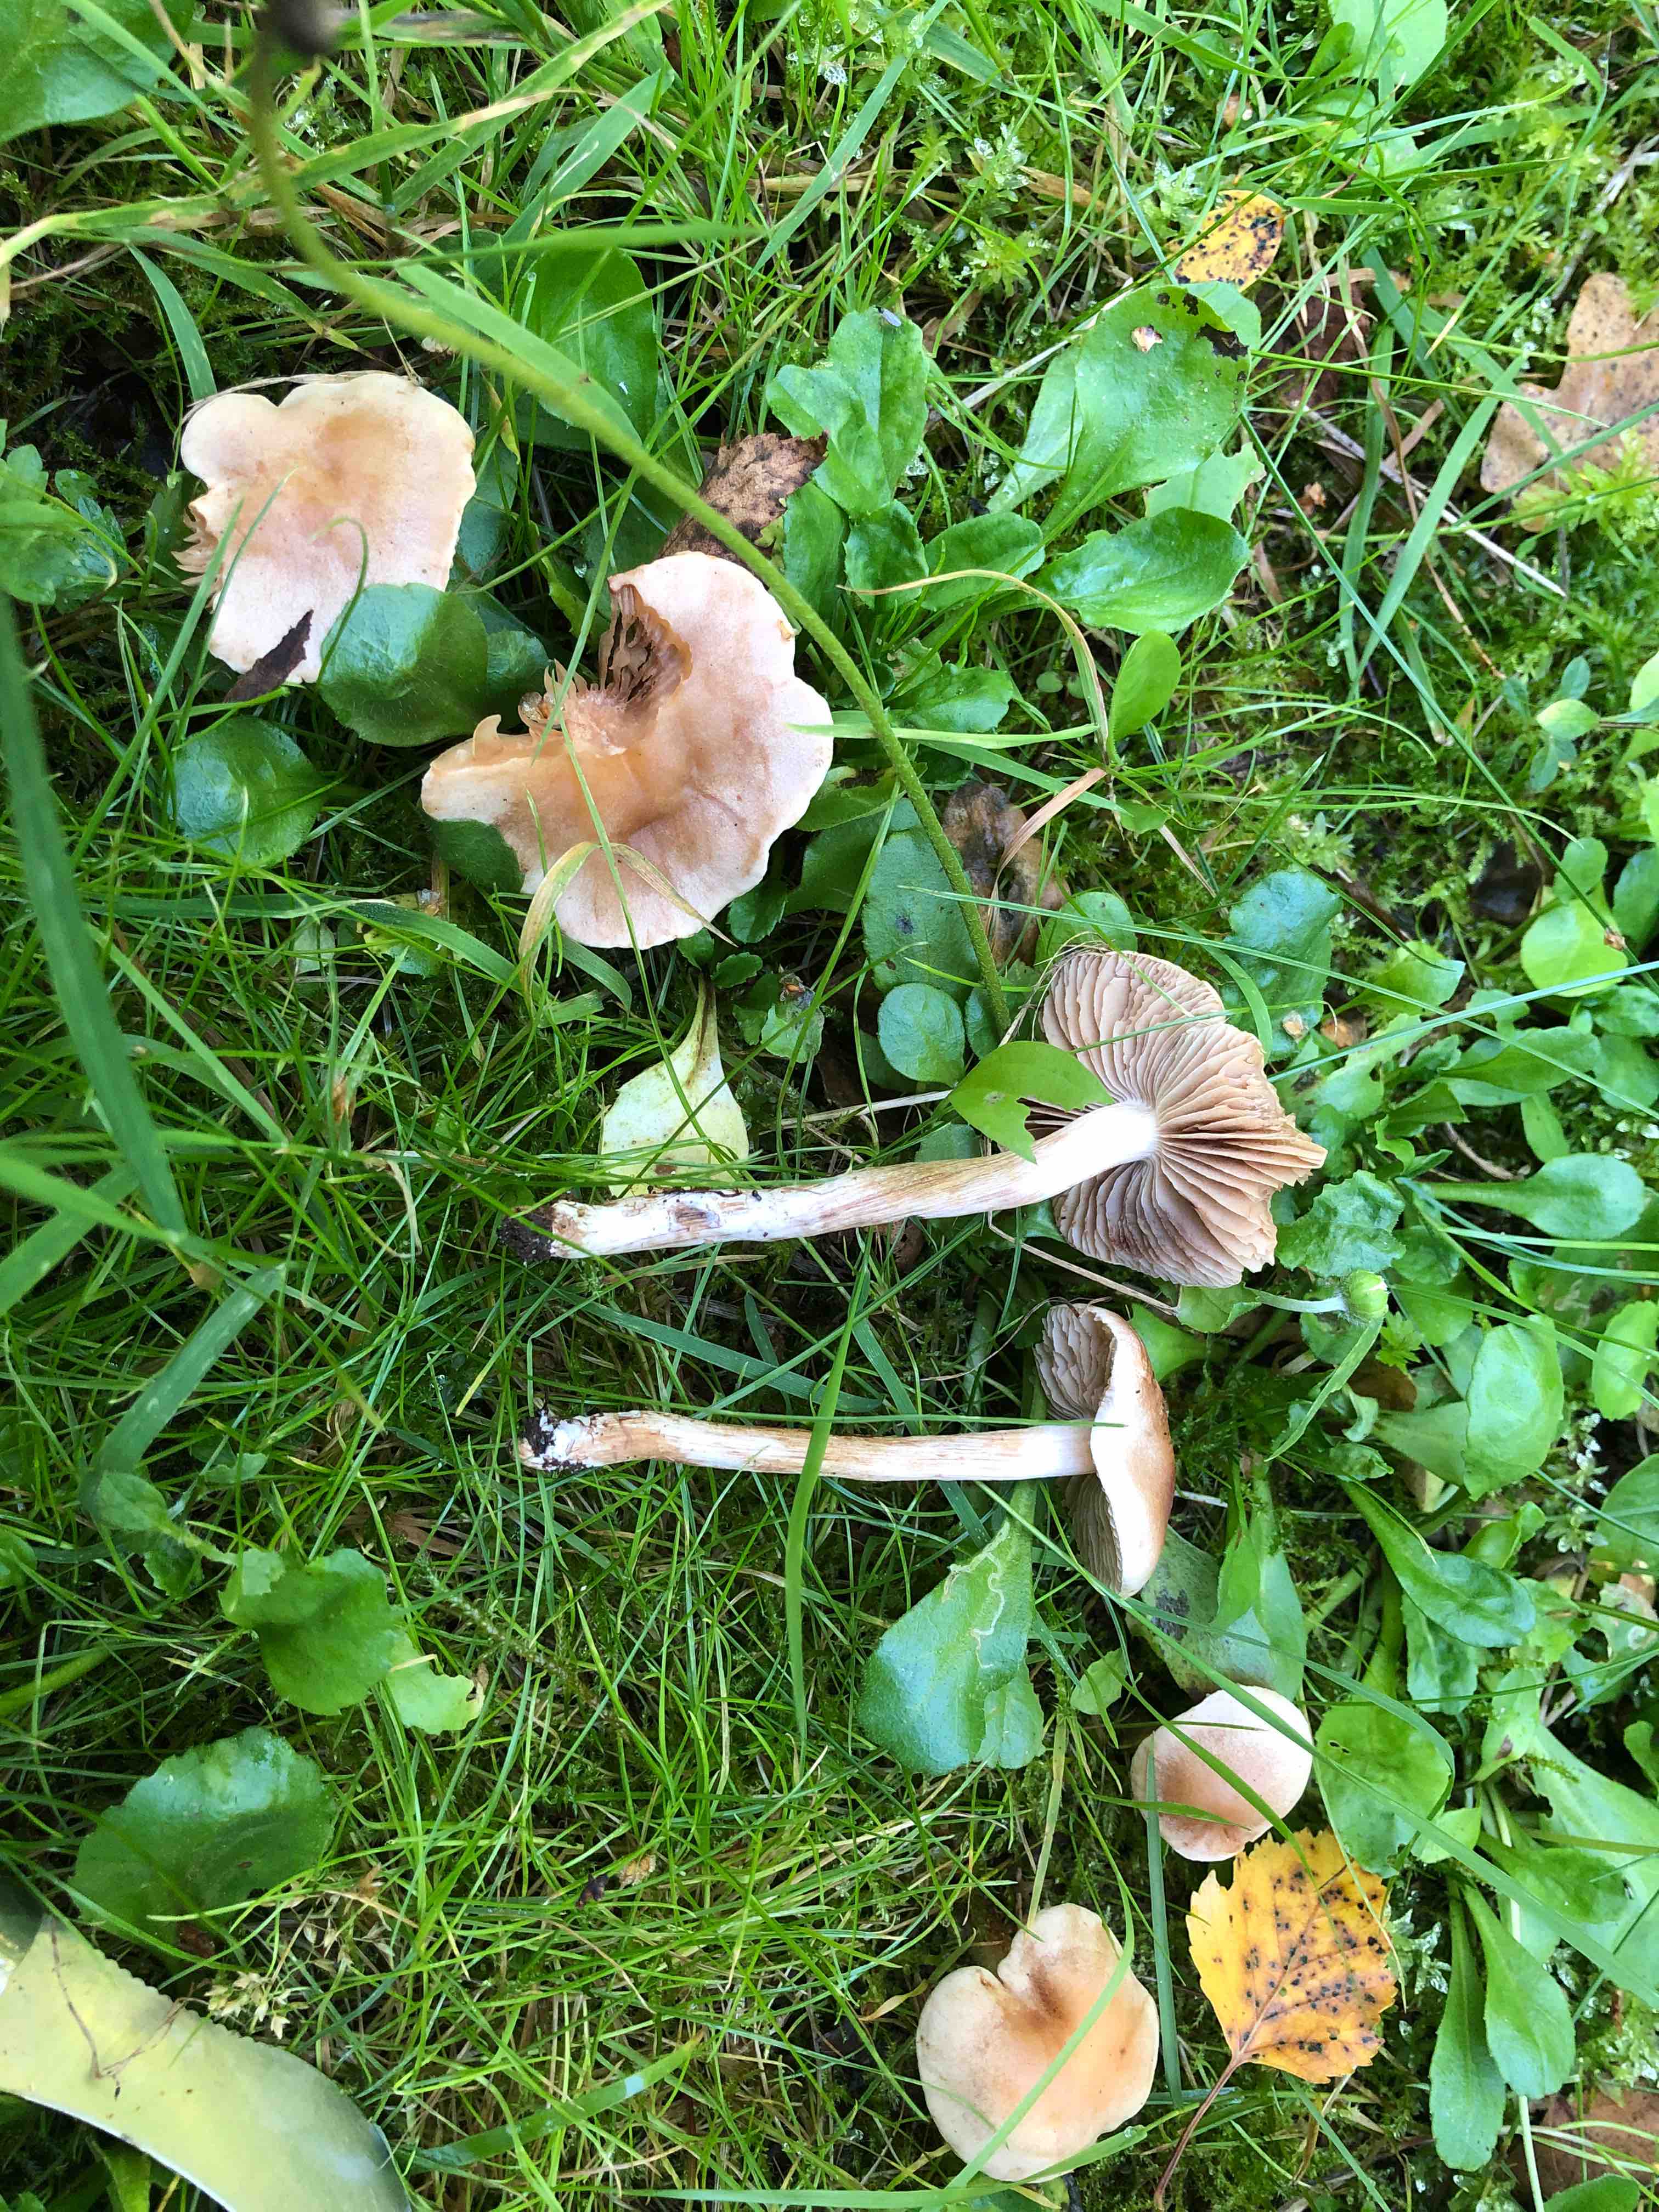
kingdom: Fungi
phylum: Basidiomycota
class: Agaricomycetes
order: Agaricales
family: Hymenogastraceae
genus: Hebeloma
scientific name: Hebeloma sacchariolens
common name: sødtduftende tåreblad
